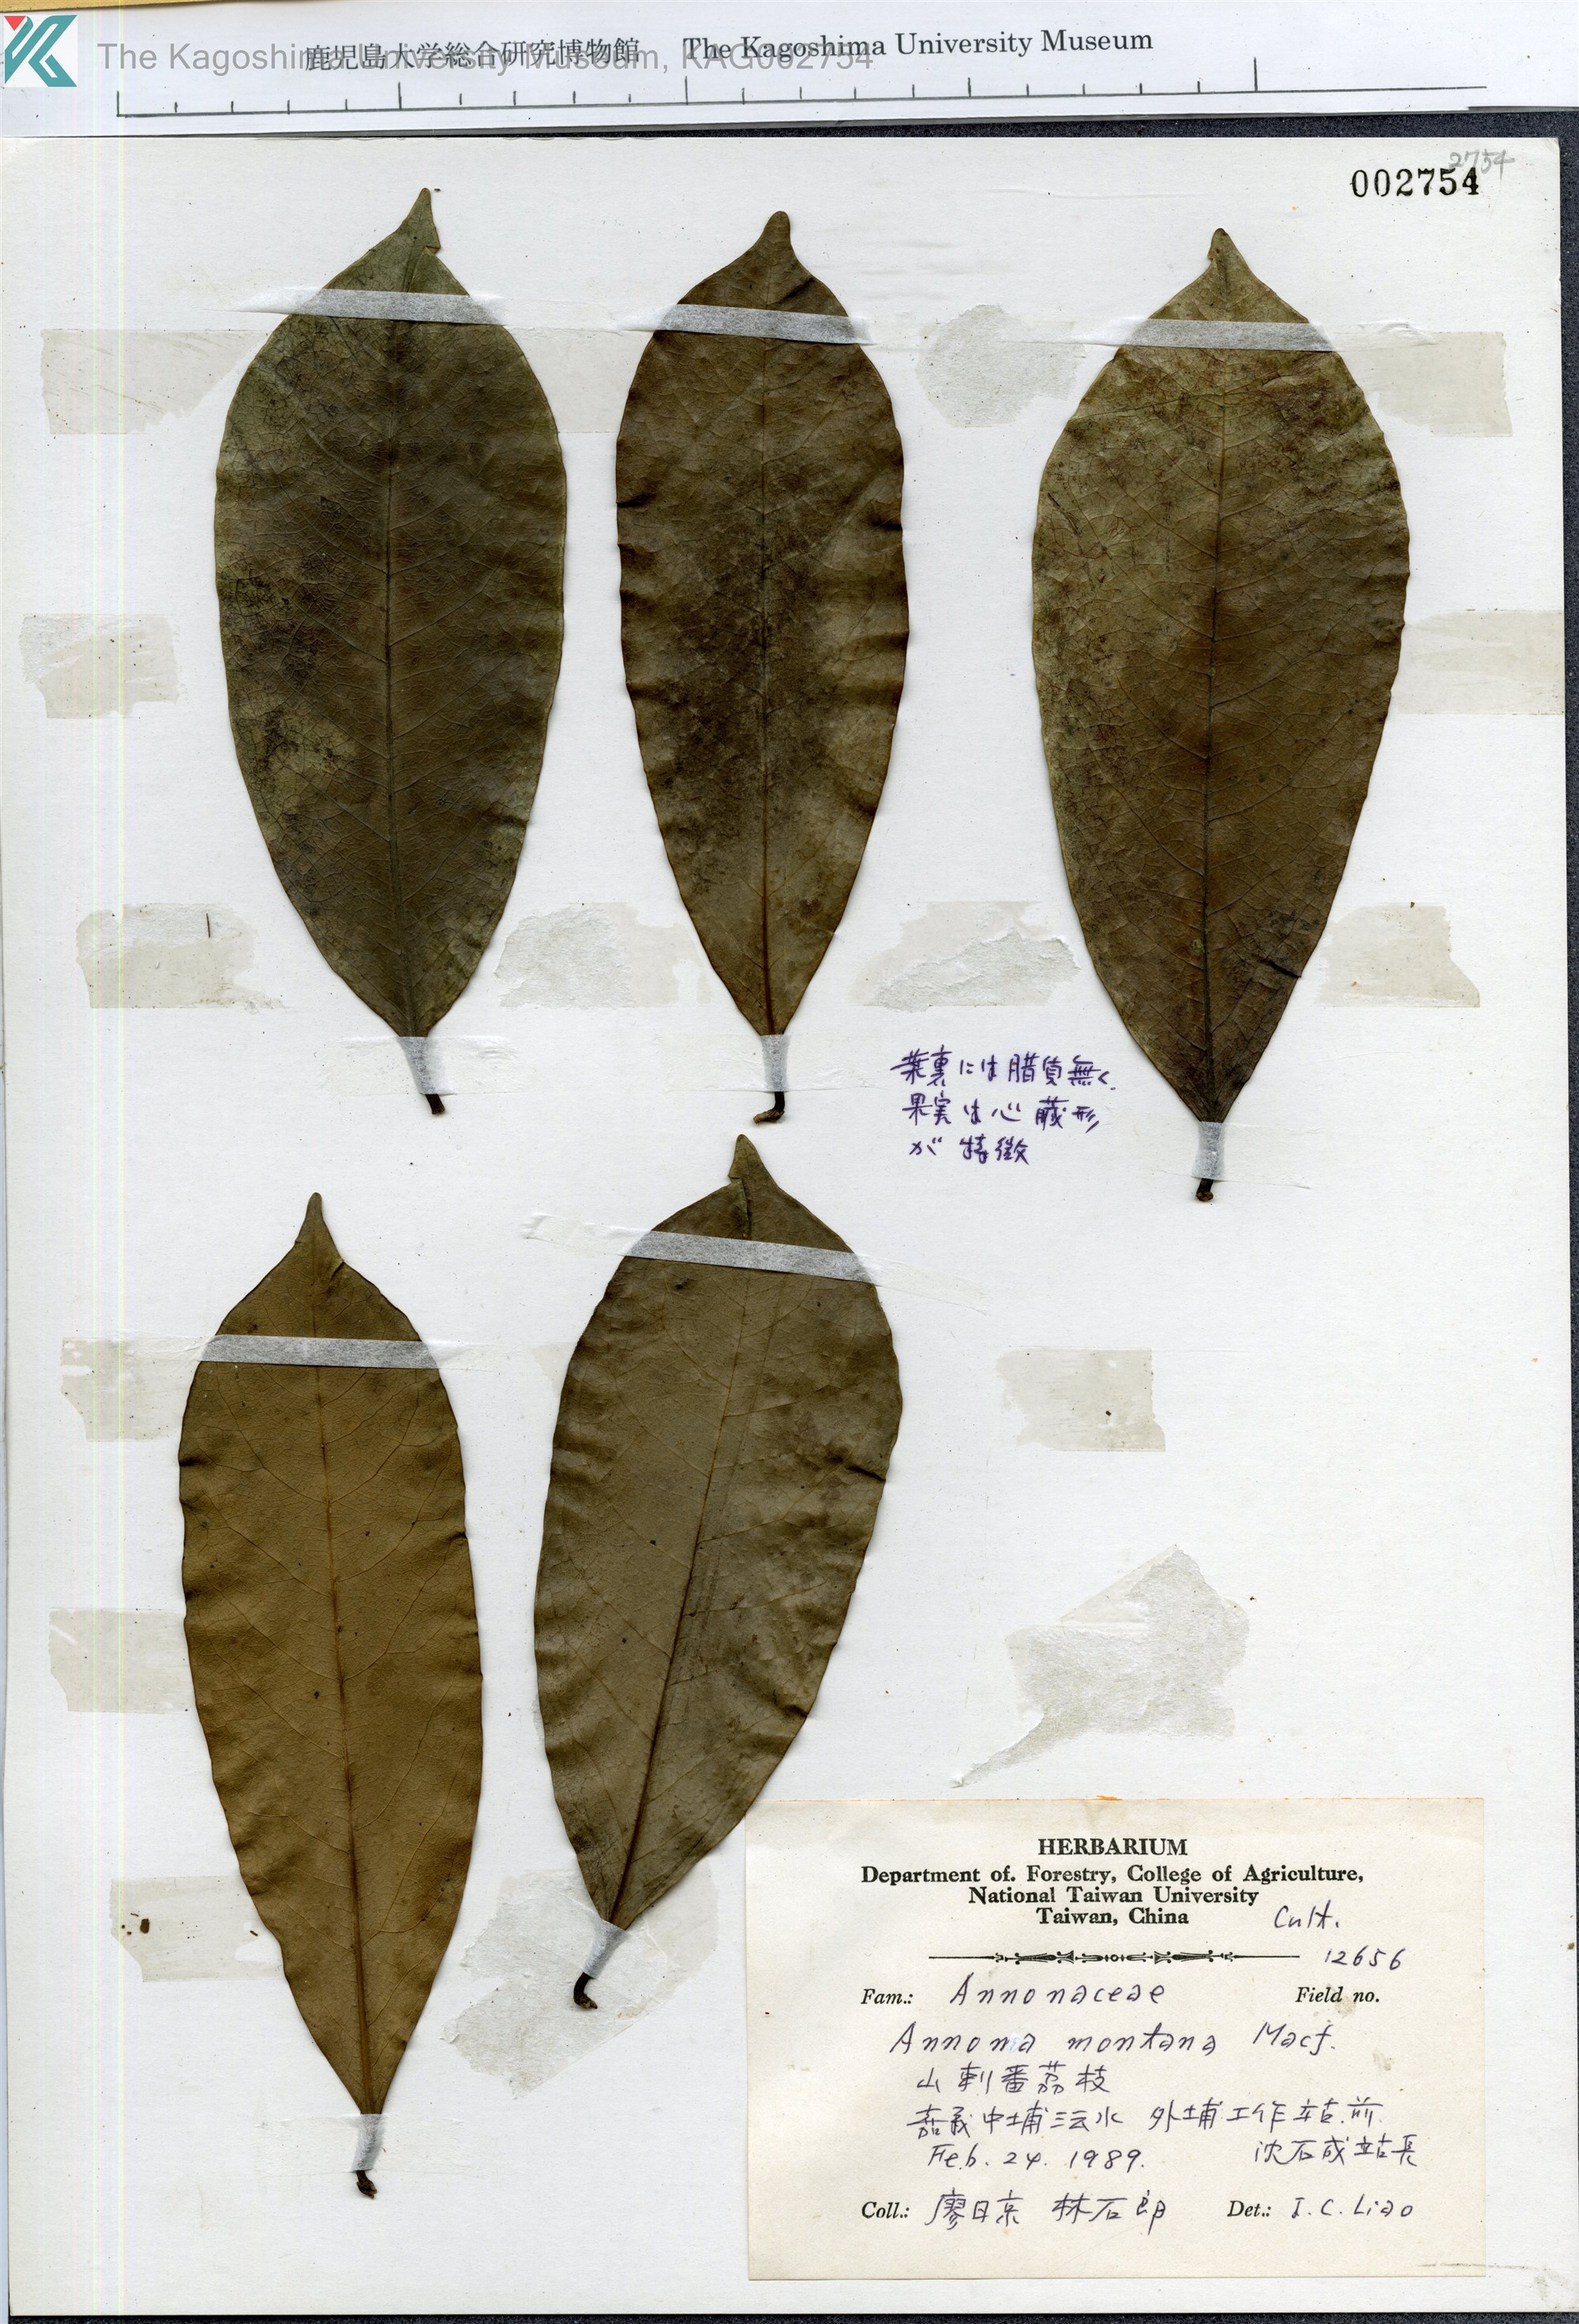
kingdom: Plantae
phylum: Tracheophyta
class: Magnoliopsida
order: Magnoliales
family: Annonaceae
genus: Annona
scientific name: Annona montana
